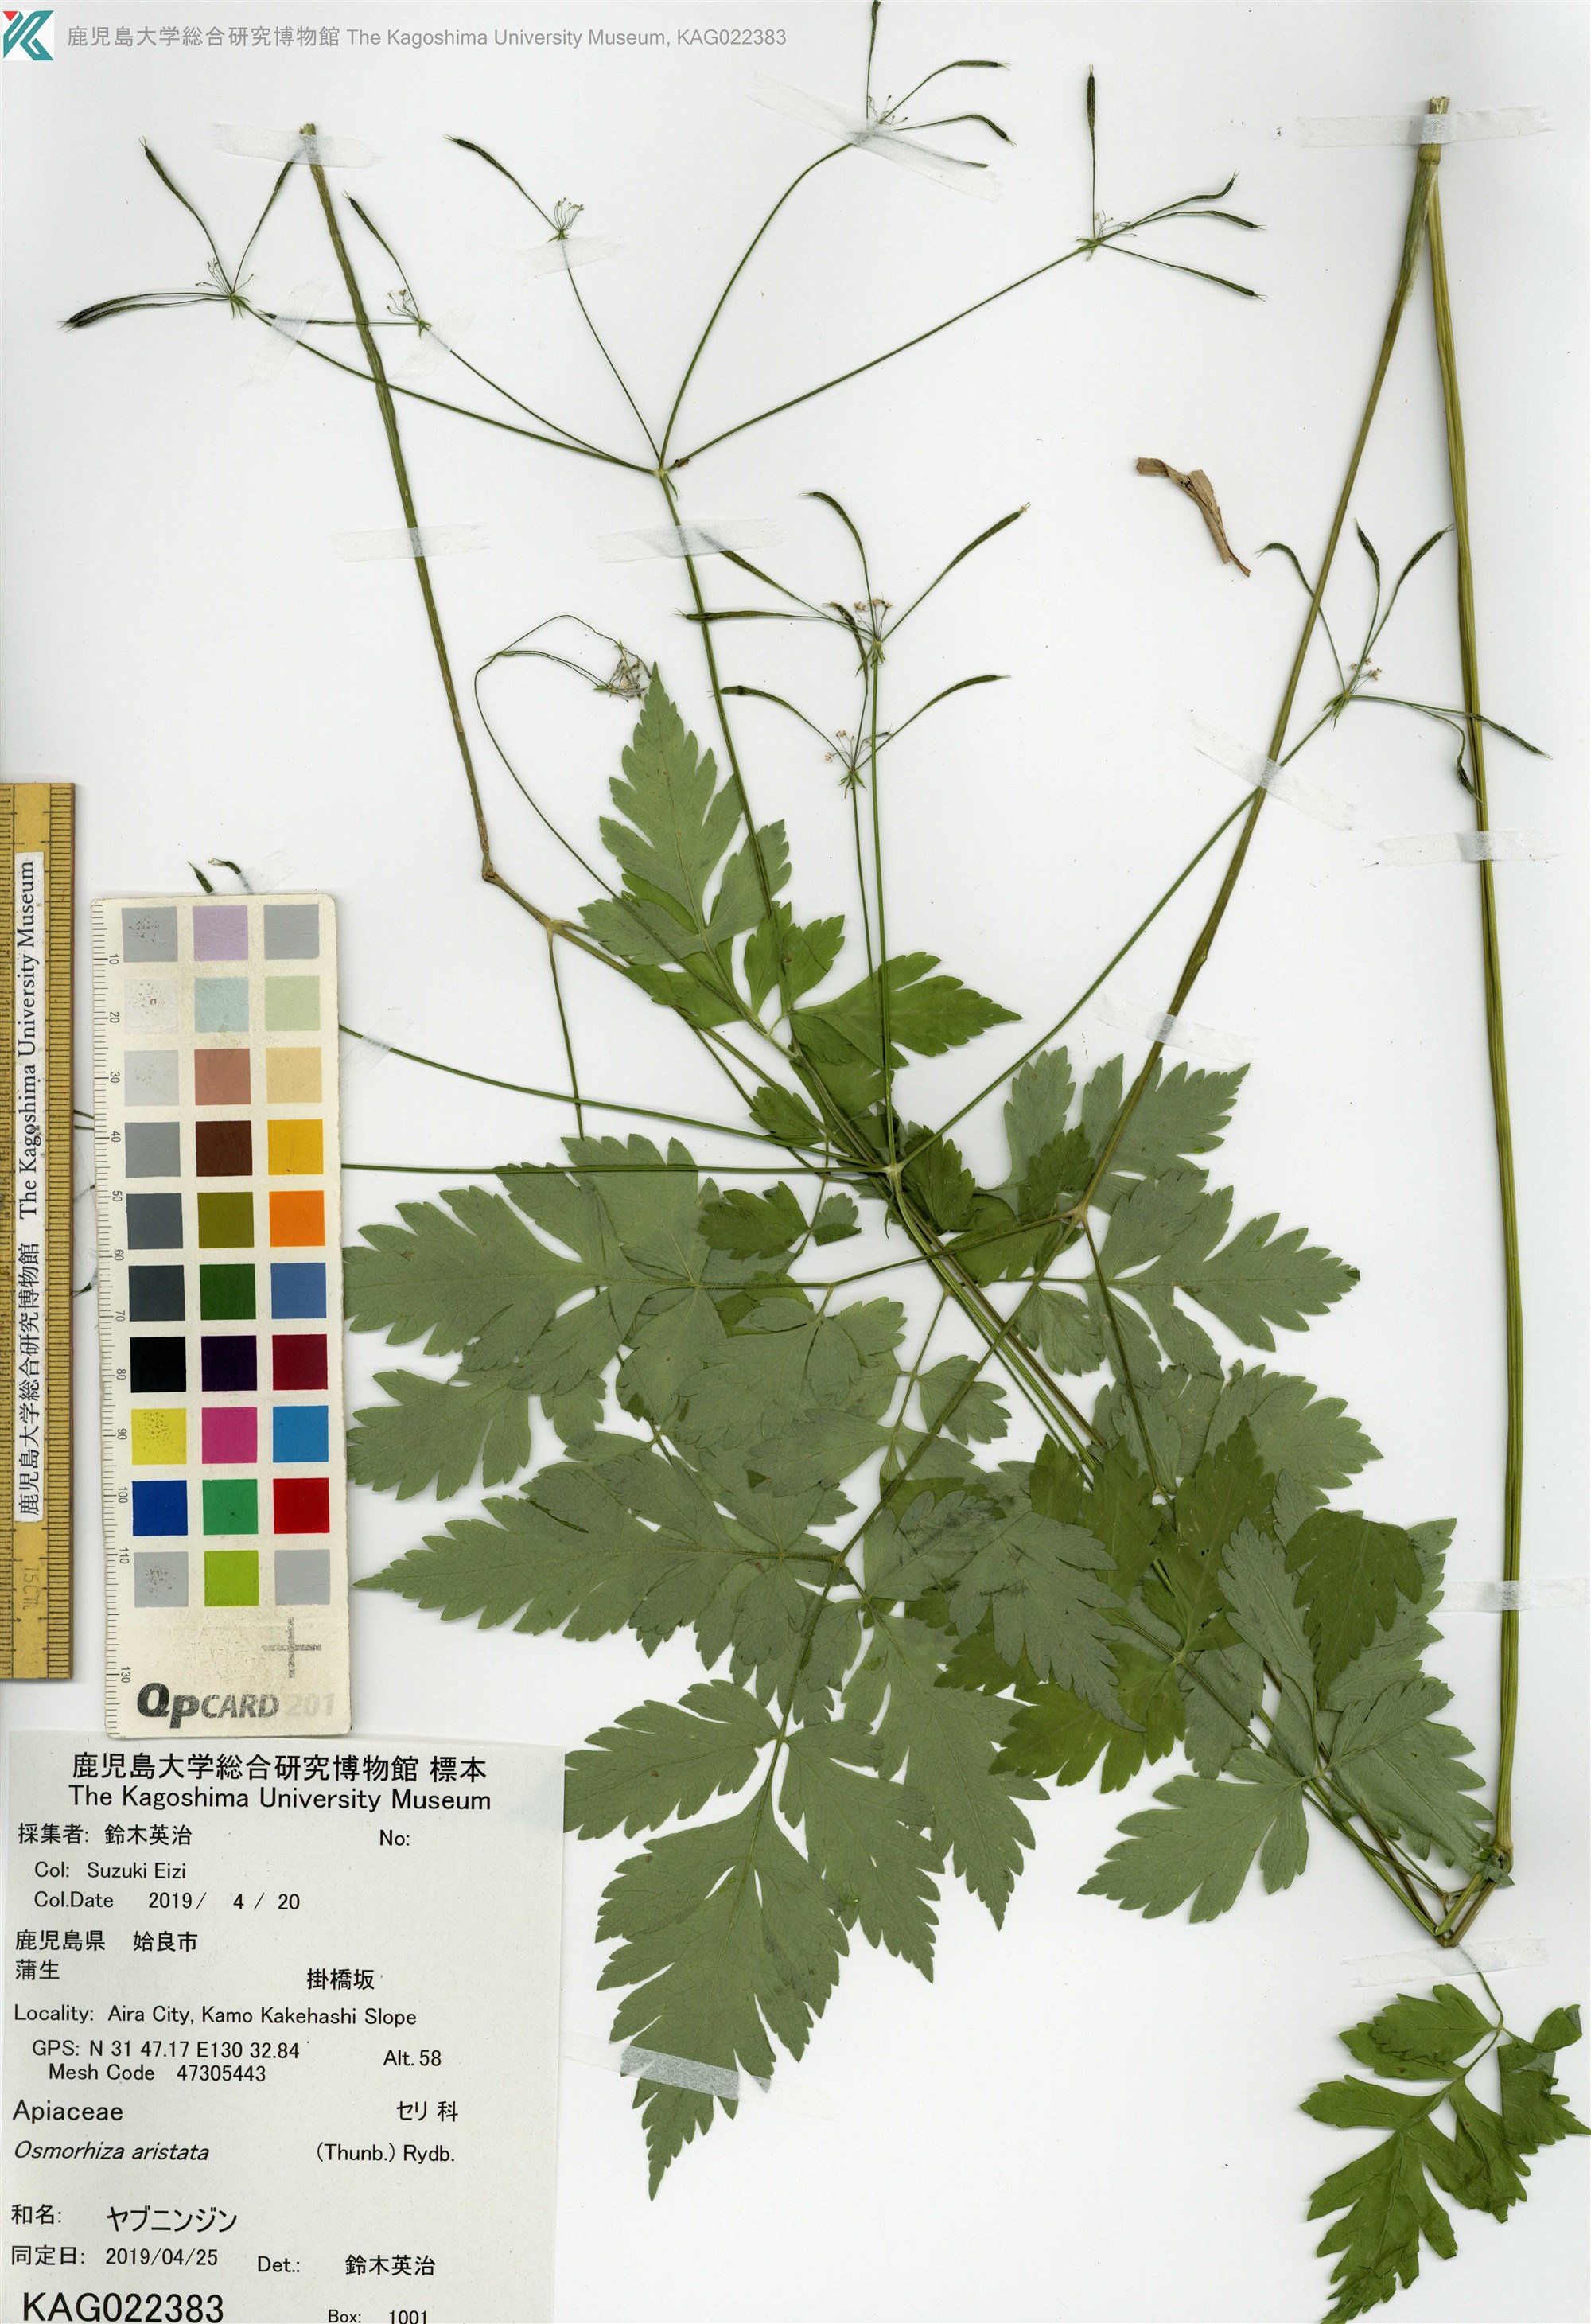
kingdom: Plantae
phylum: Tracheophyta
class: Magnoliopsida
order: Apiales
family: Apiaceae
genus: Osmorhiza
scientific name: Osmorhiza aristata
